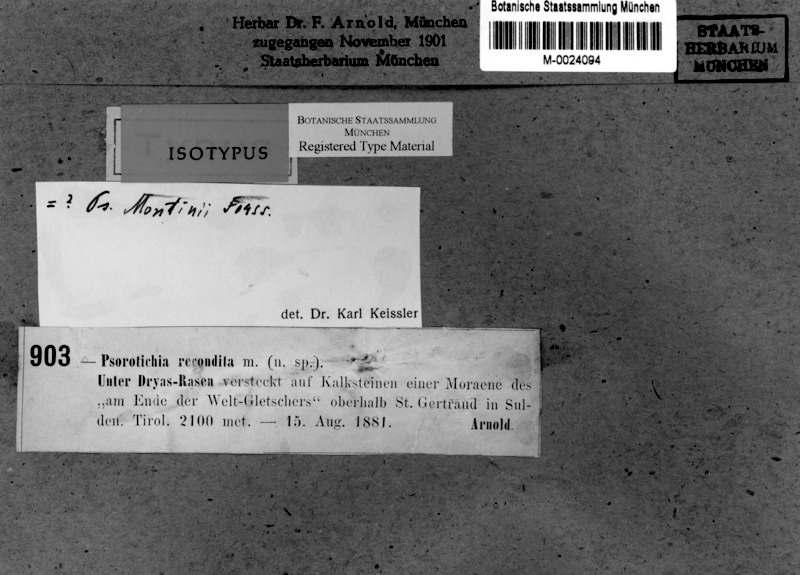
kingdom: Fungi
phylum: Ascomycota
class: Lichinomycetes
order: Lichinales
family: Lichinaceae
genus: Pyrenocarpon
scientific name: Pyrenocarpon Thelochroa montinii
